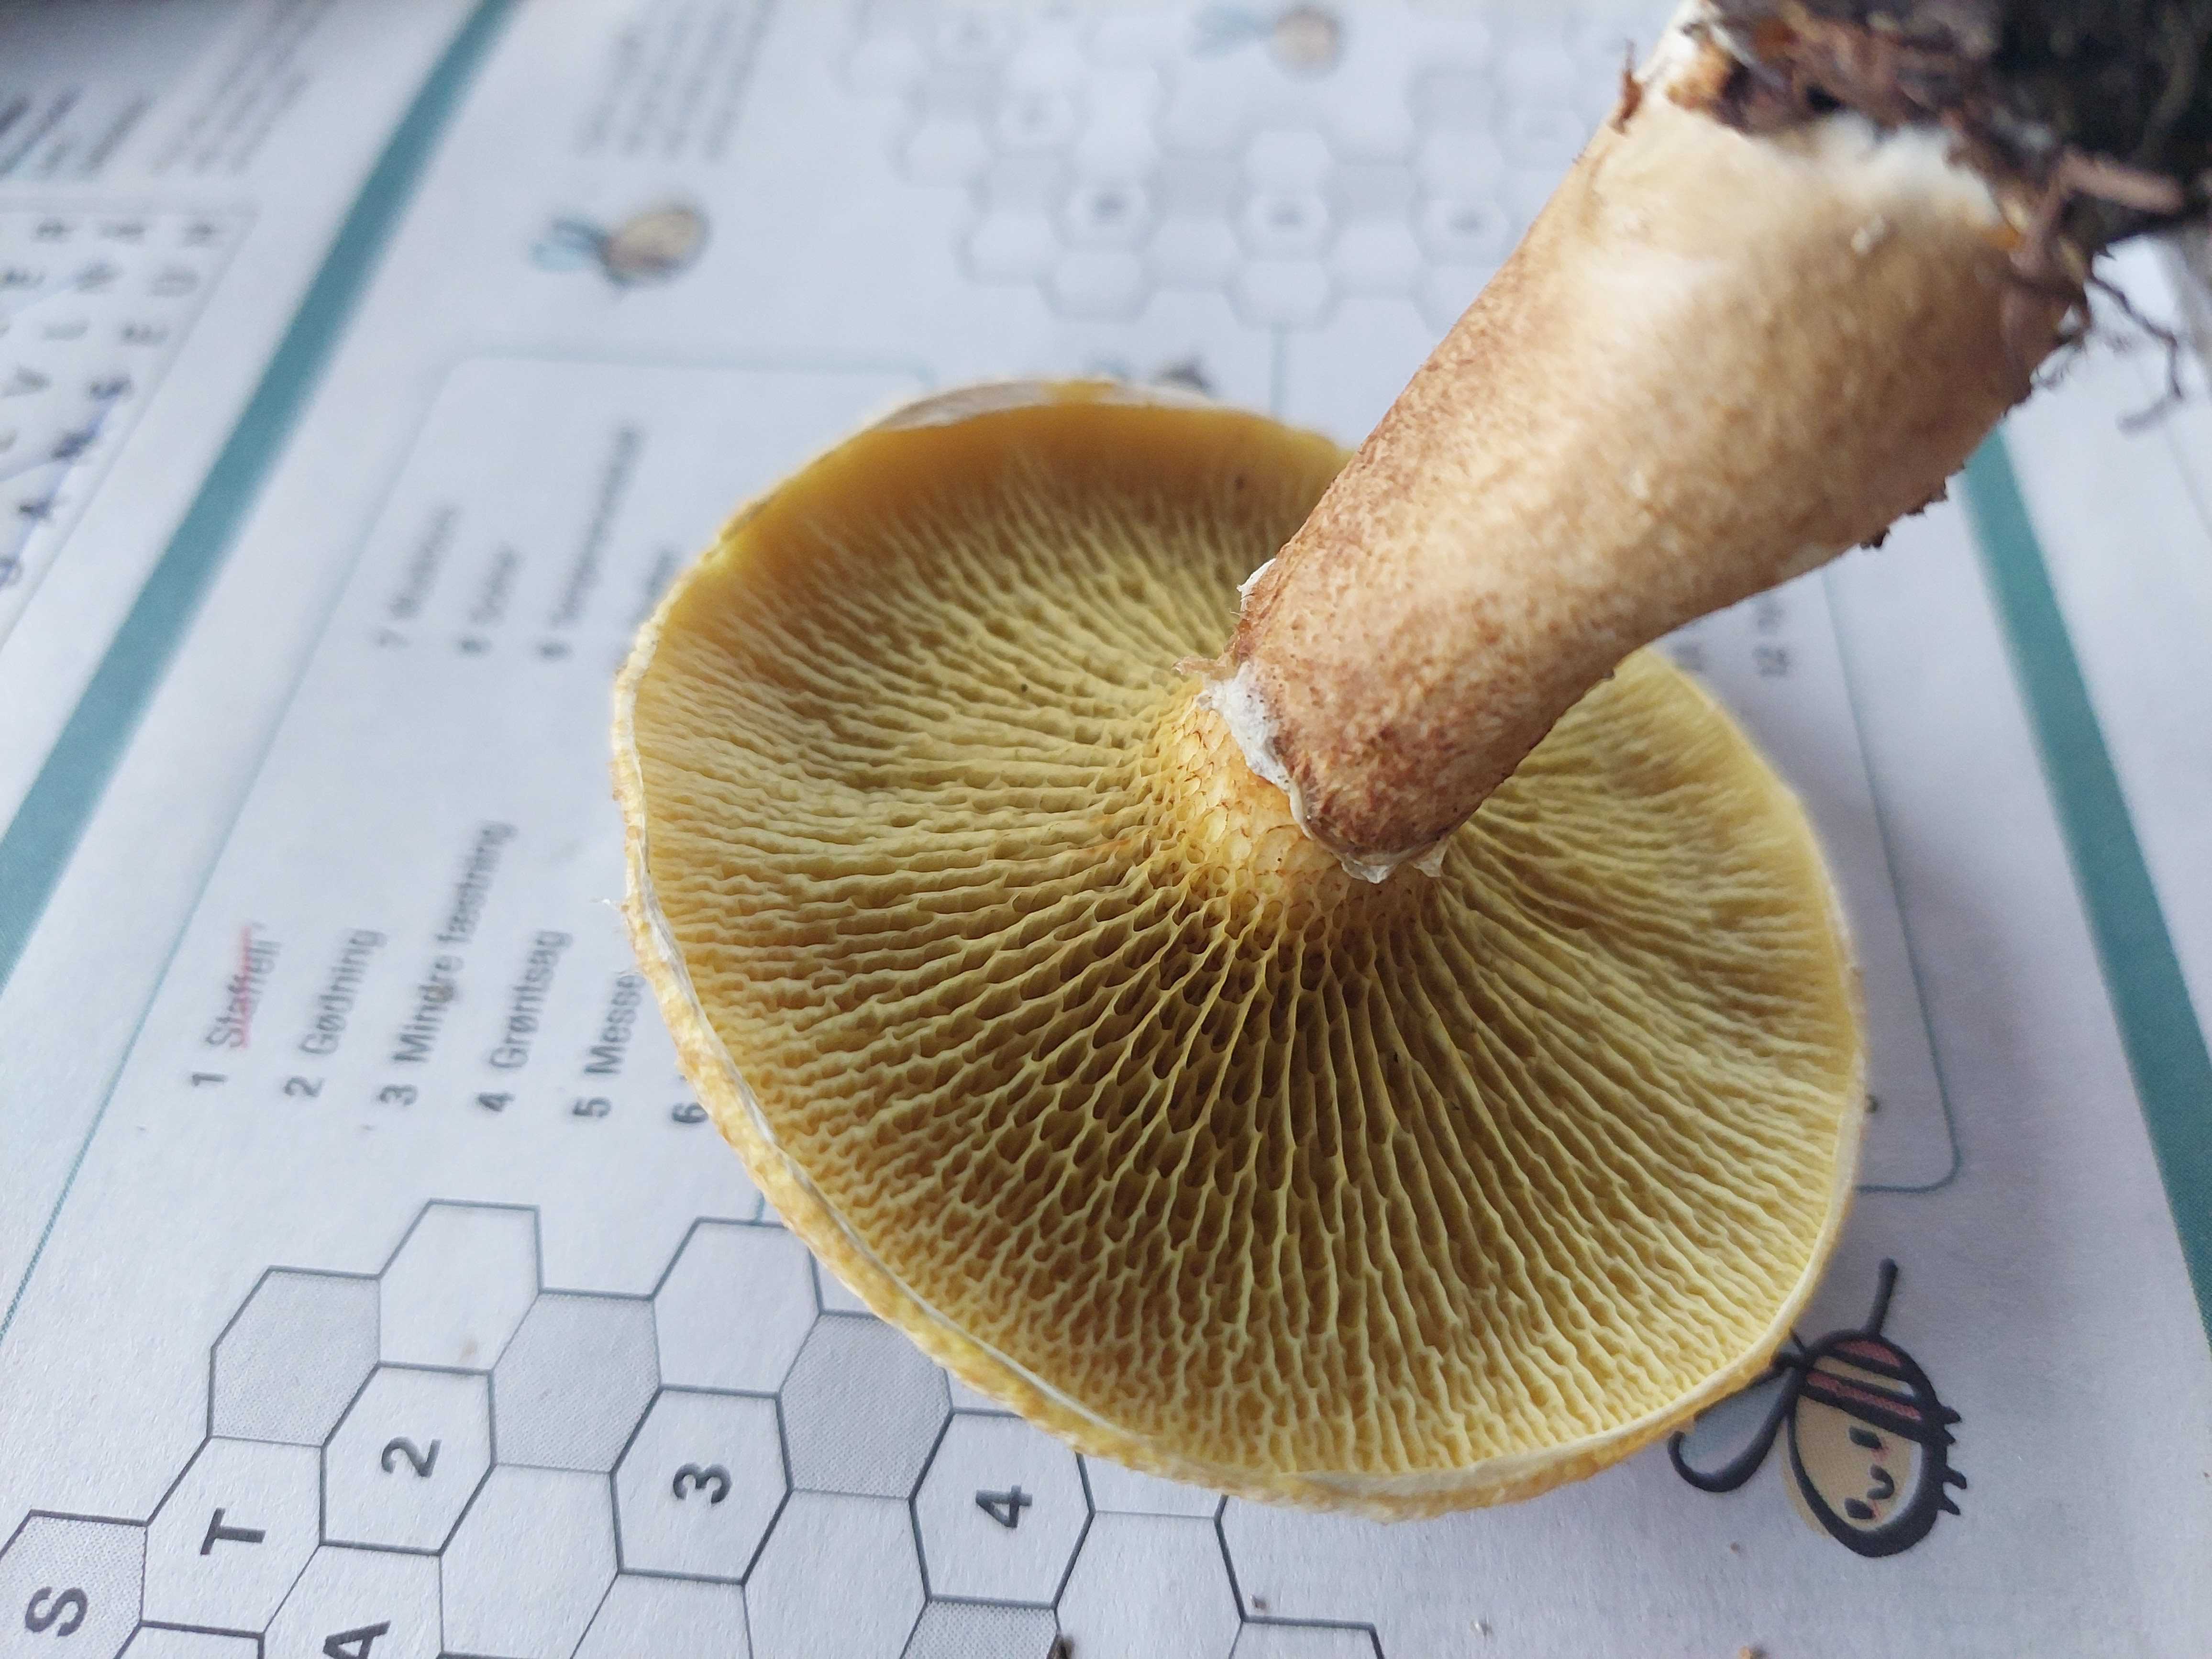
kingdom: Fungi
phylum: Basidiomycota
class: Agaricomycetes
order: Boletales
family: Suillaceae
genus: Suillus
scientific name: Suillus cavipes
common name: hulstokket slimrørhat
